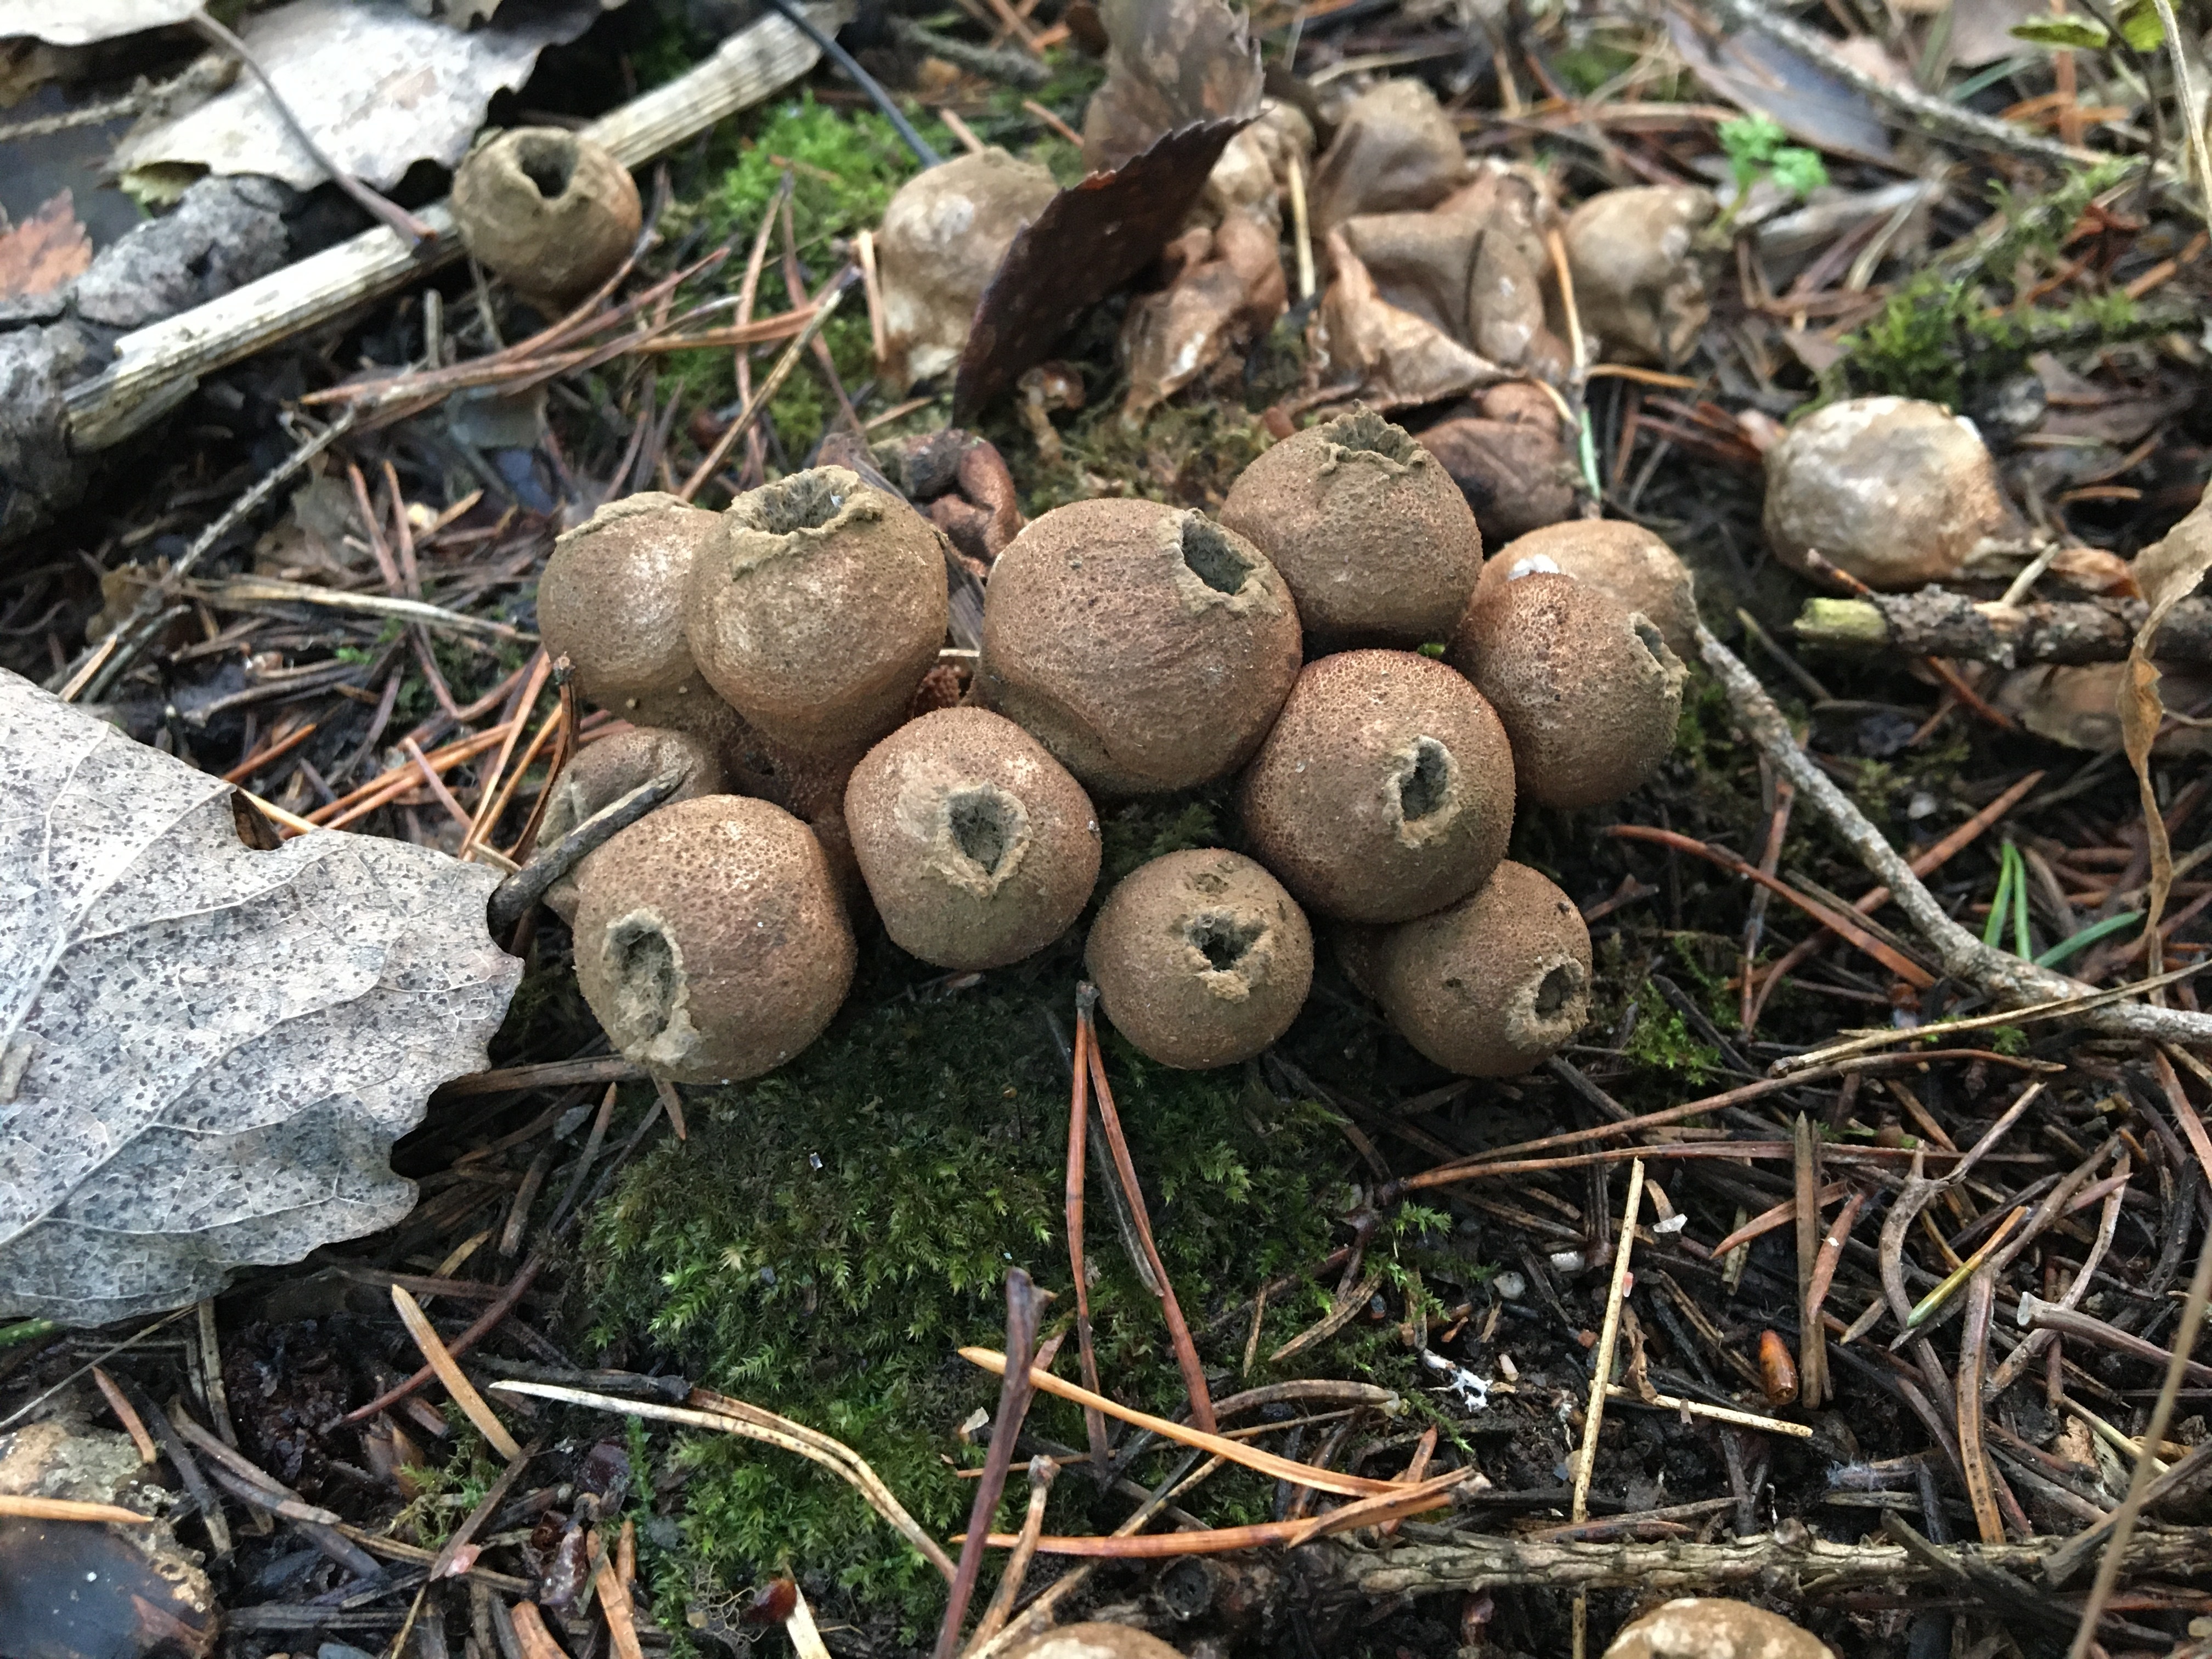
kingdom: Fungi
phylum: Basidiomycota
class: Agaricomycetes
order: Agaricales
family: Lycoperdaceae
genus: Apioperdon
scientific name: Apioperdon pyriforme
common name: Pear-shaped puffball
